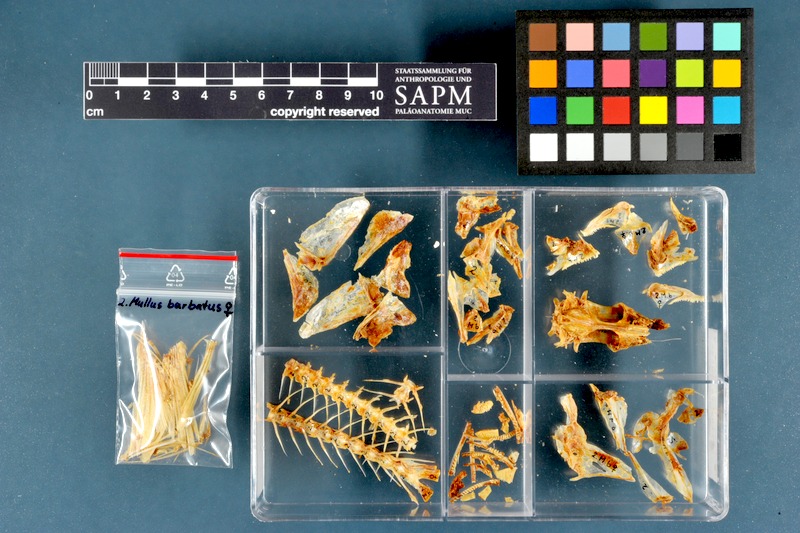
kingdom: Animalia
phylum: Chordata
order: Perciformes
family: Mullidae
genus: Mullus
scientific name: Mullus barbatus
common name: Blunt-snouted mullet
